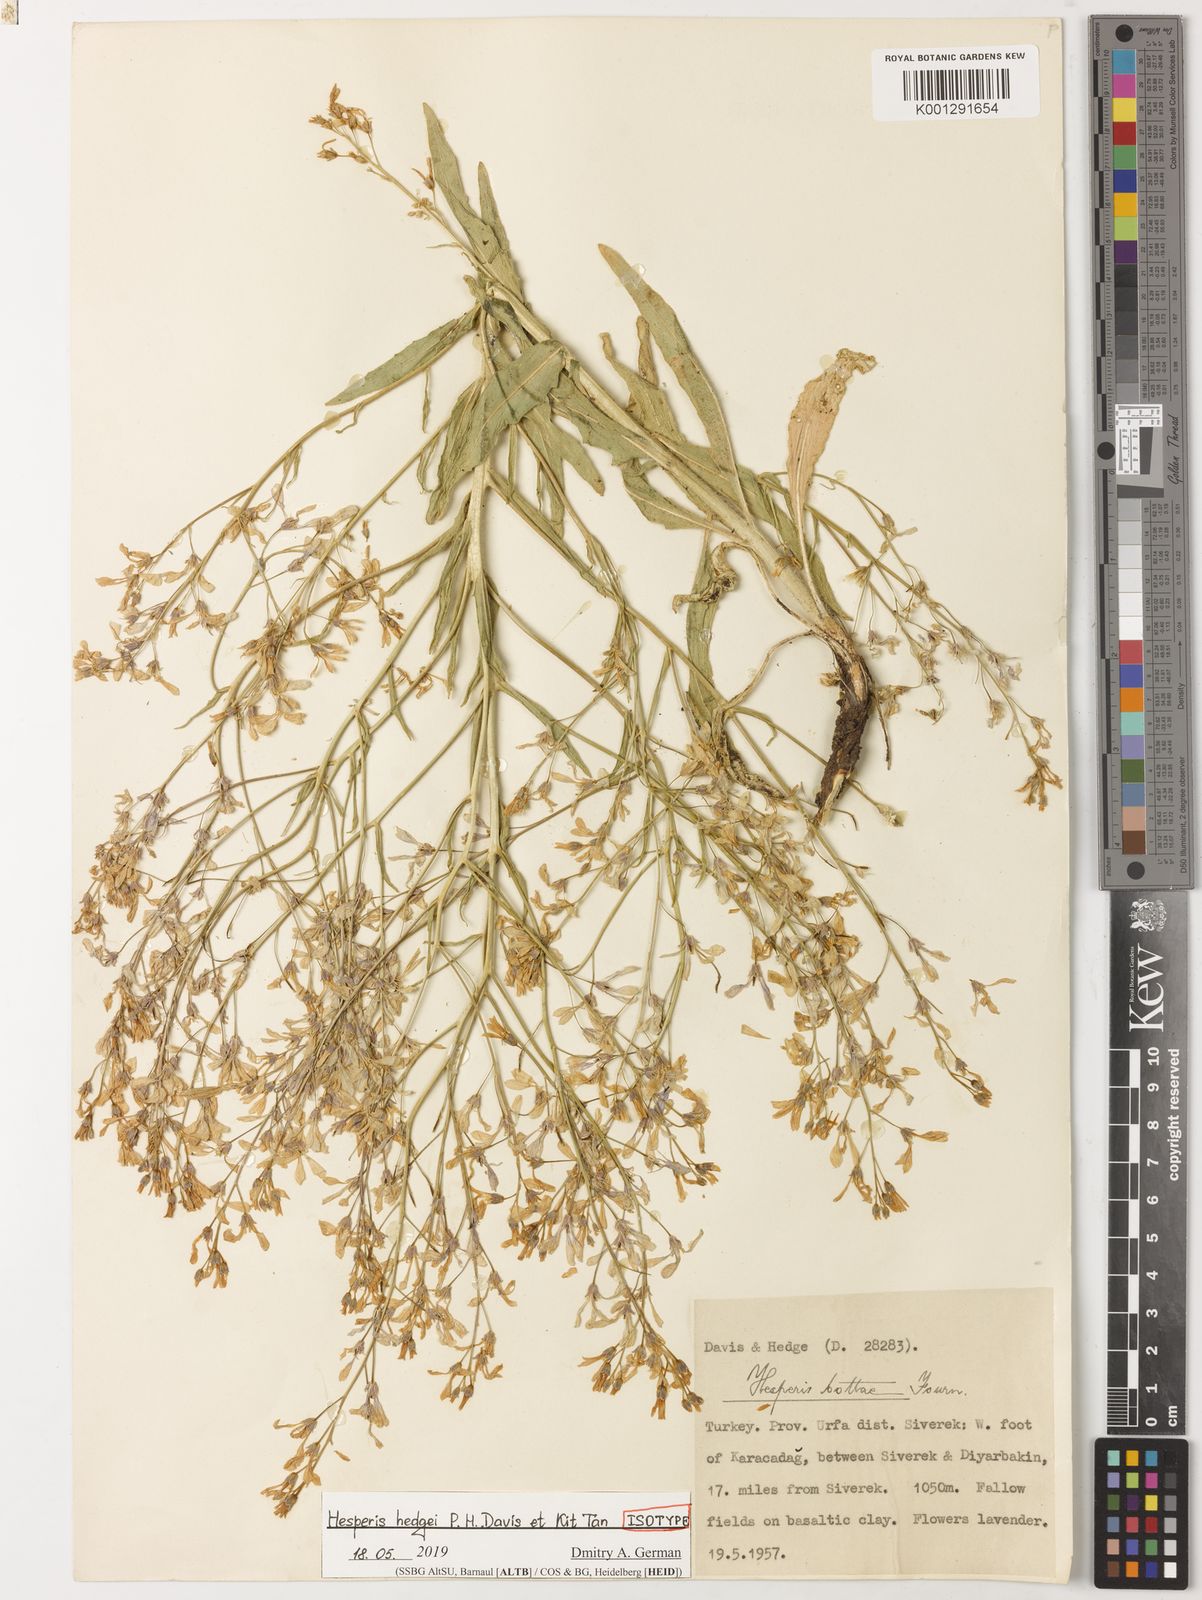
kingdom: Plantae
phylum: Tracheophyta
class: Magnoliopsida
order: Brassicales
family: Brassicaceae
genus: Hesperis
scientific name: Hesperis hedgei
